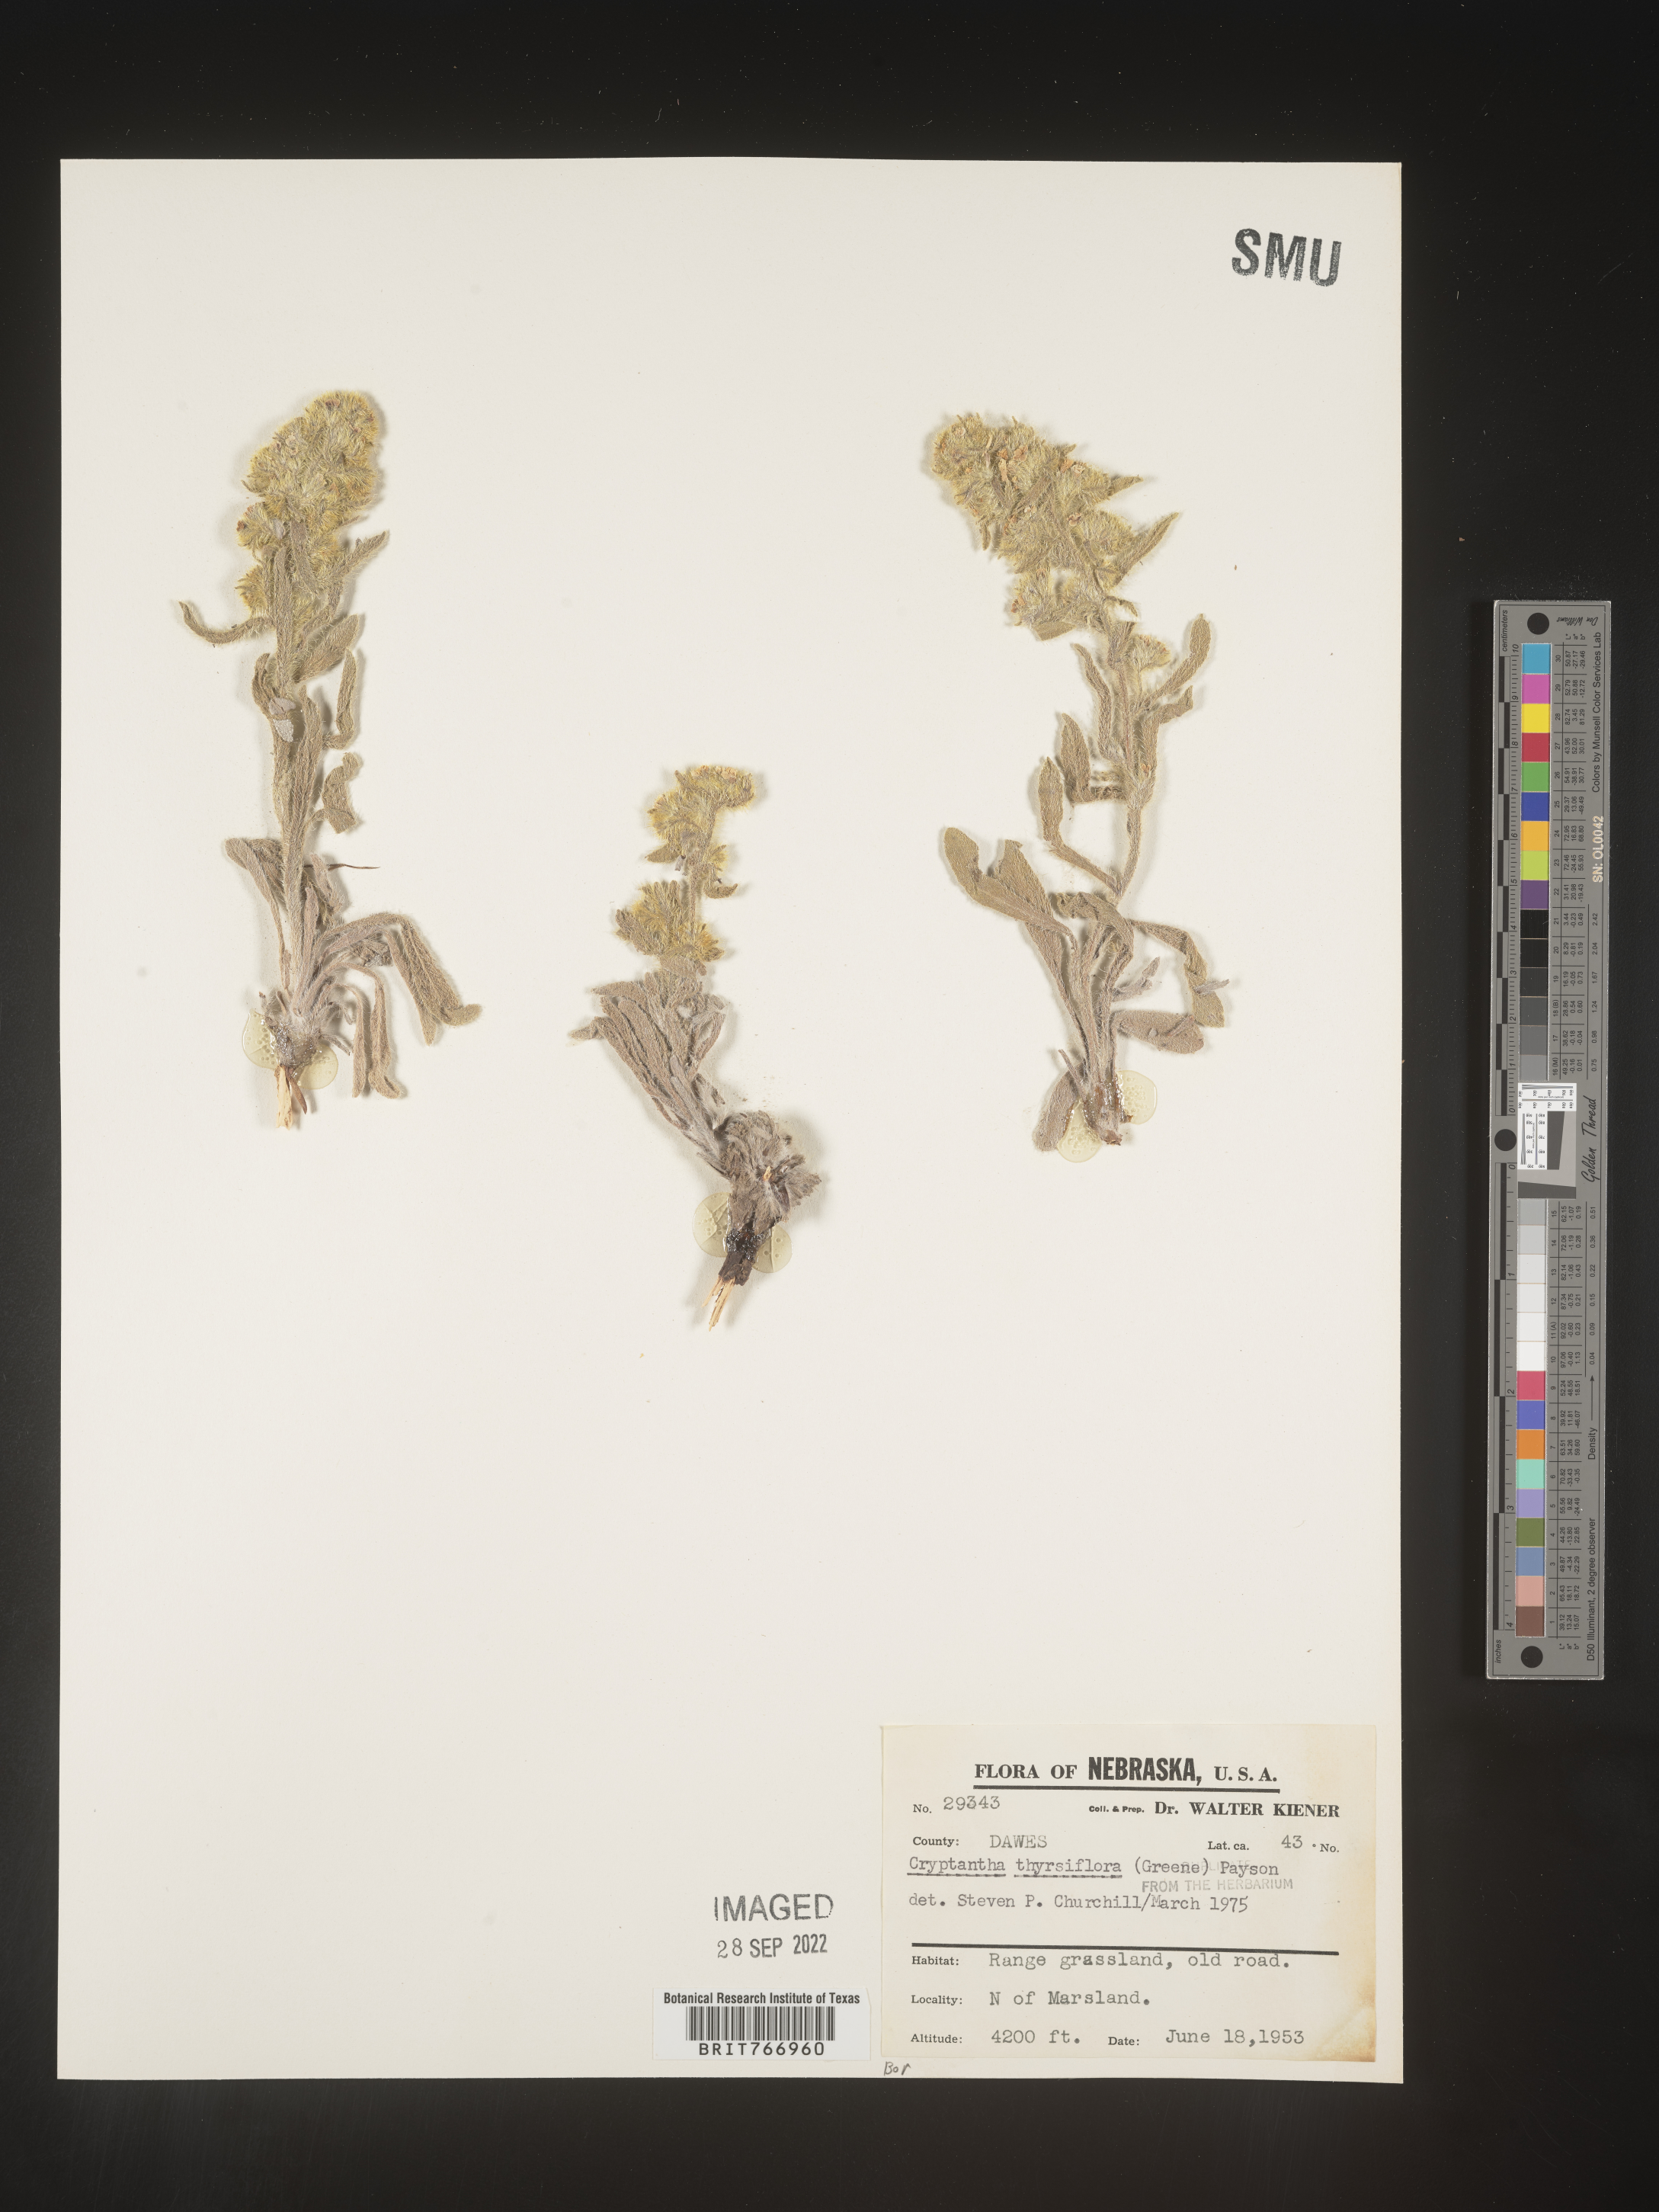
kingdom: Plantae
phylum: Tracheophyta
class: Magnoliopsida
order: Boraginales
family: Boraginaceae
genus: Oreocarya
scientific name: Oreocarya thyrsiflora
